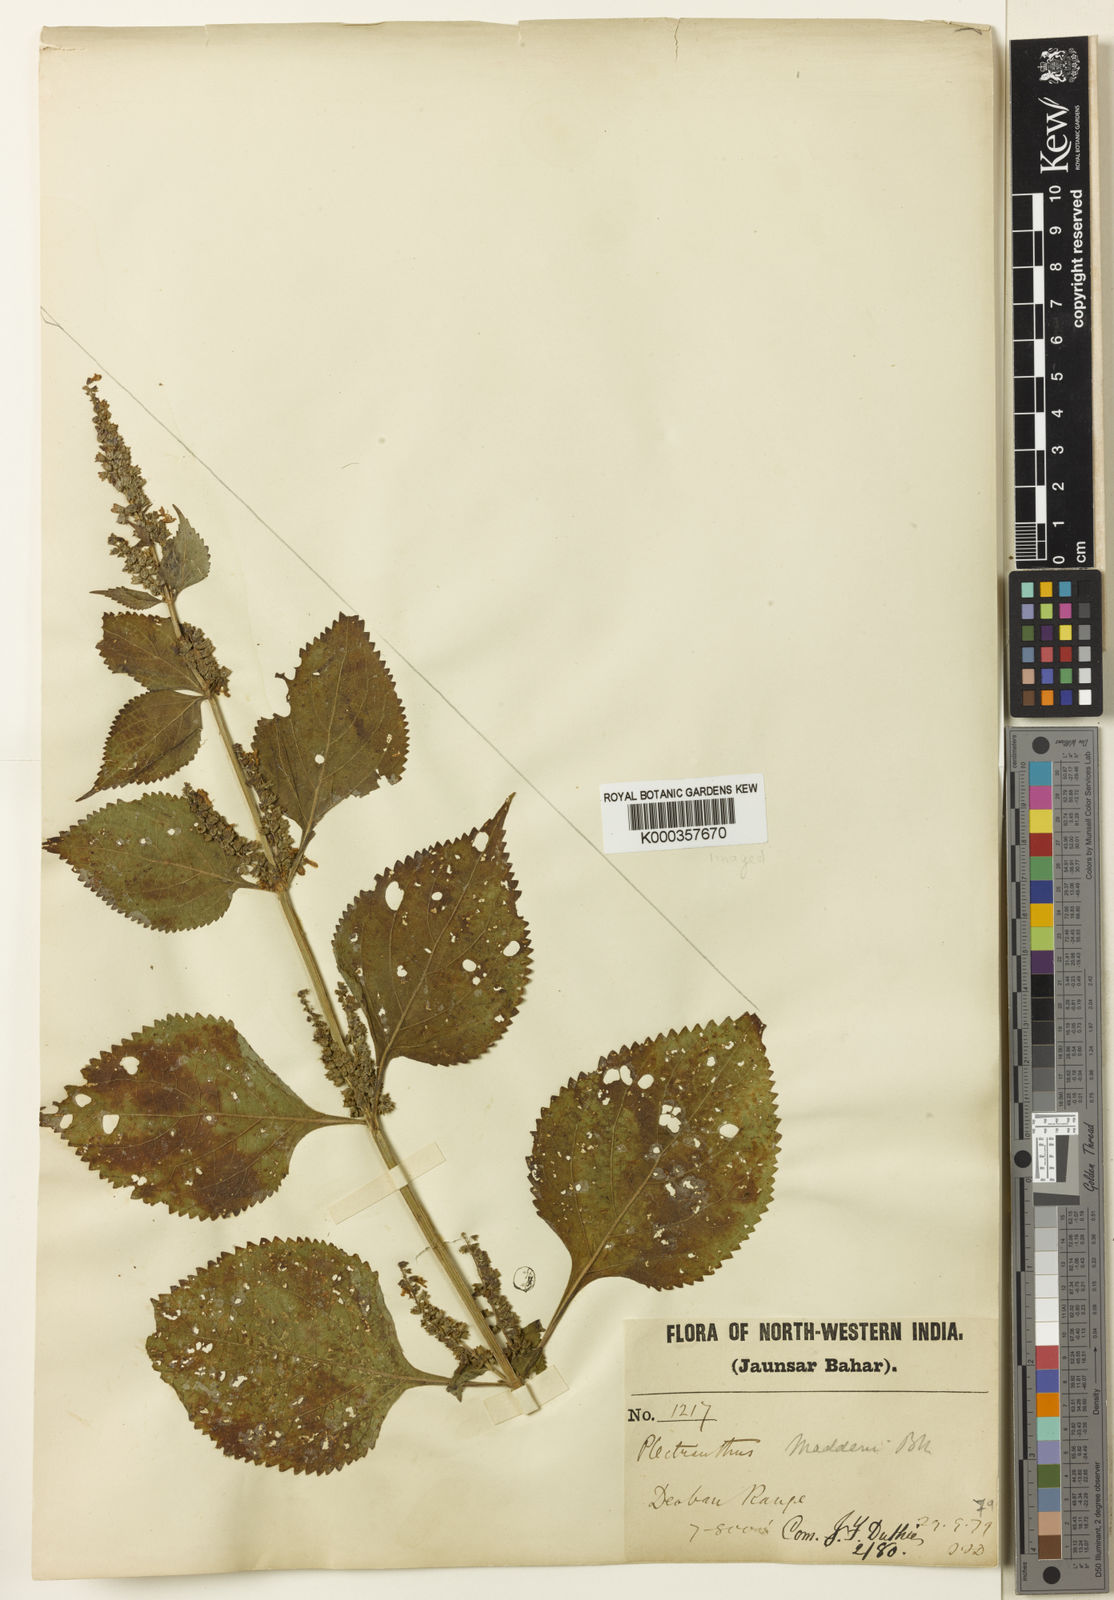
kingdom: Plantae
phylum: Tracheophyta
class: Magnoliopsida
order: Lamiales
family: Lamiaceae
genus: Isodon
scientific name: Isodon
